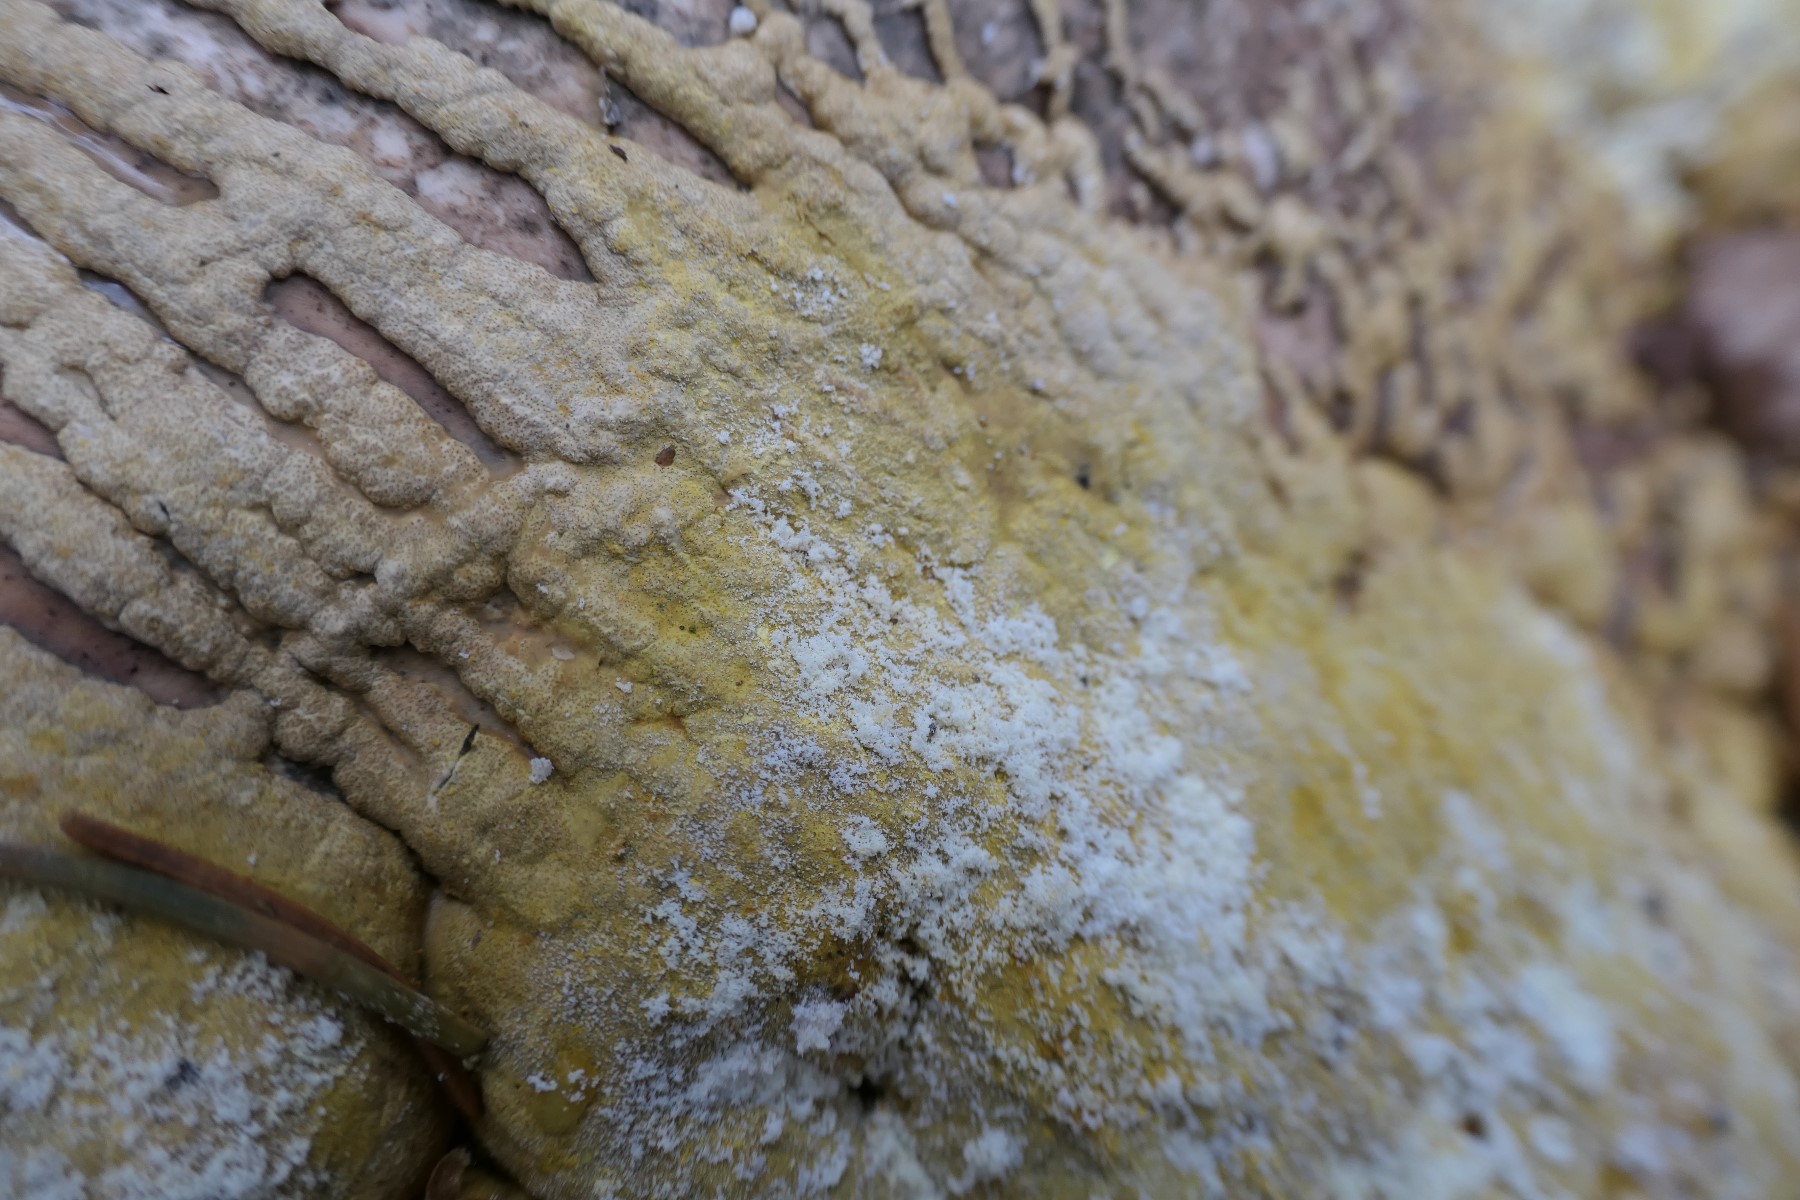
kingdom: Fungi
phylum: Ascomycota
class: Sordariomycetes
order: Hypocreales
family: Hypocreaceae
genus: Trichoderma
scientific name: Trichoderma pulvinatum
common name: snyltende kødkerne
